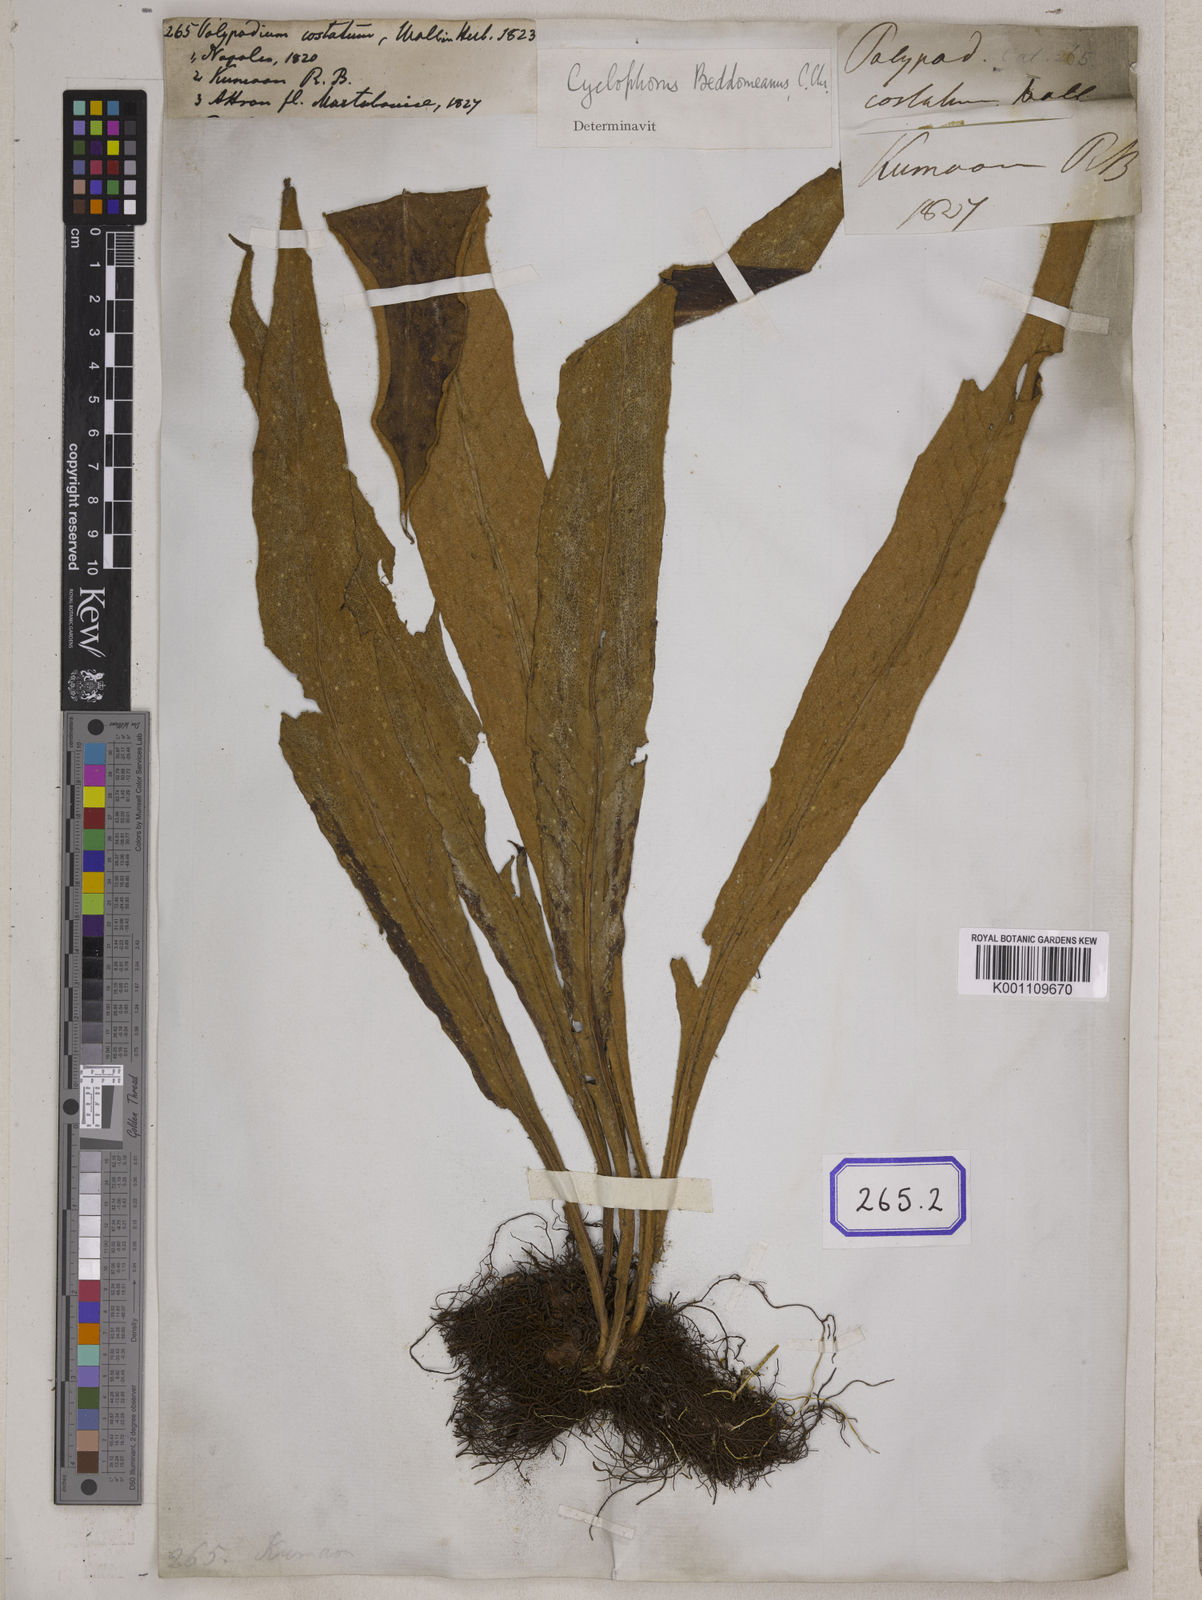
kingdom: Plantae
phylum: Tracheophyta
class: Polypodiopsida
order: Polypodiales
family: Thelypteridaceae
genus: Menisciopsis
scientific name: Menisciopsis penangiana
